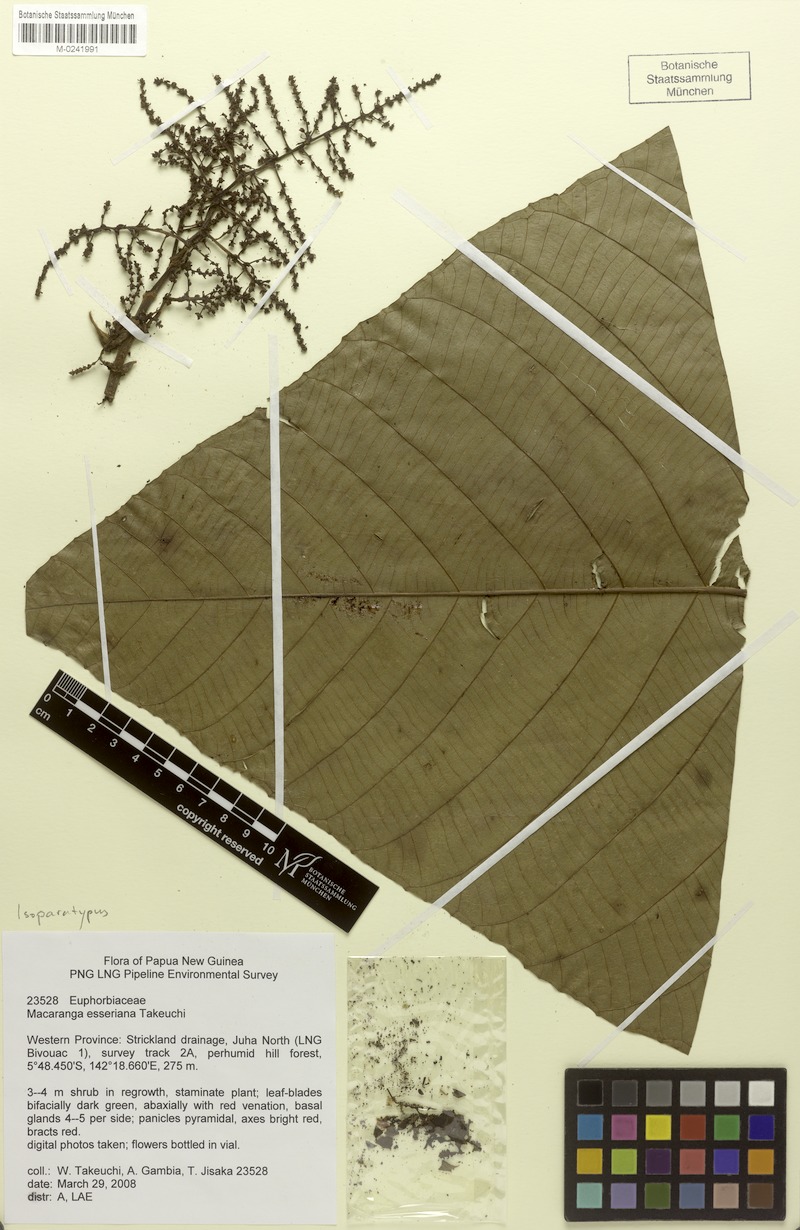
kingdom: Plantae
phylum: Tracheophyta
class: Magnoliopsida
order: Malpighiales
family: Euphorbiaceae
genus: Macaranga
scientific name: Macaranga esseriana
